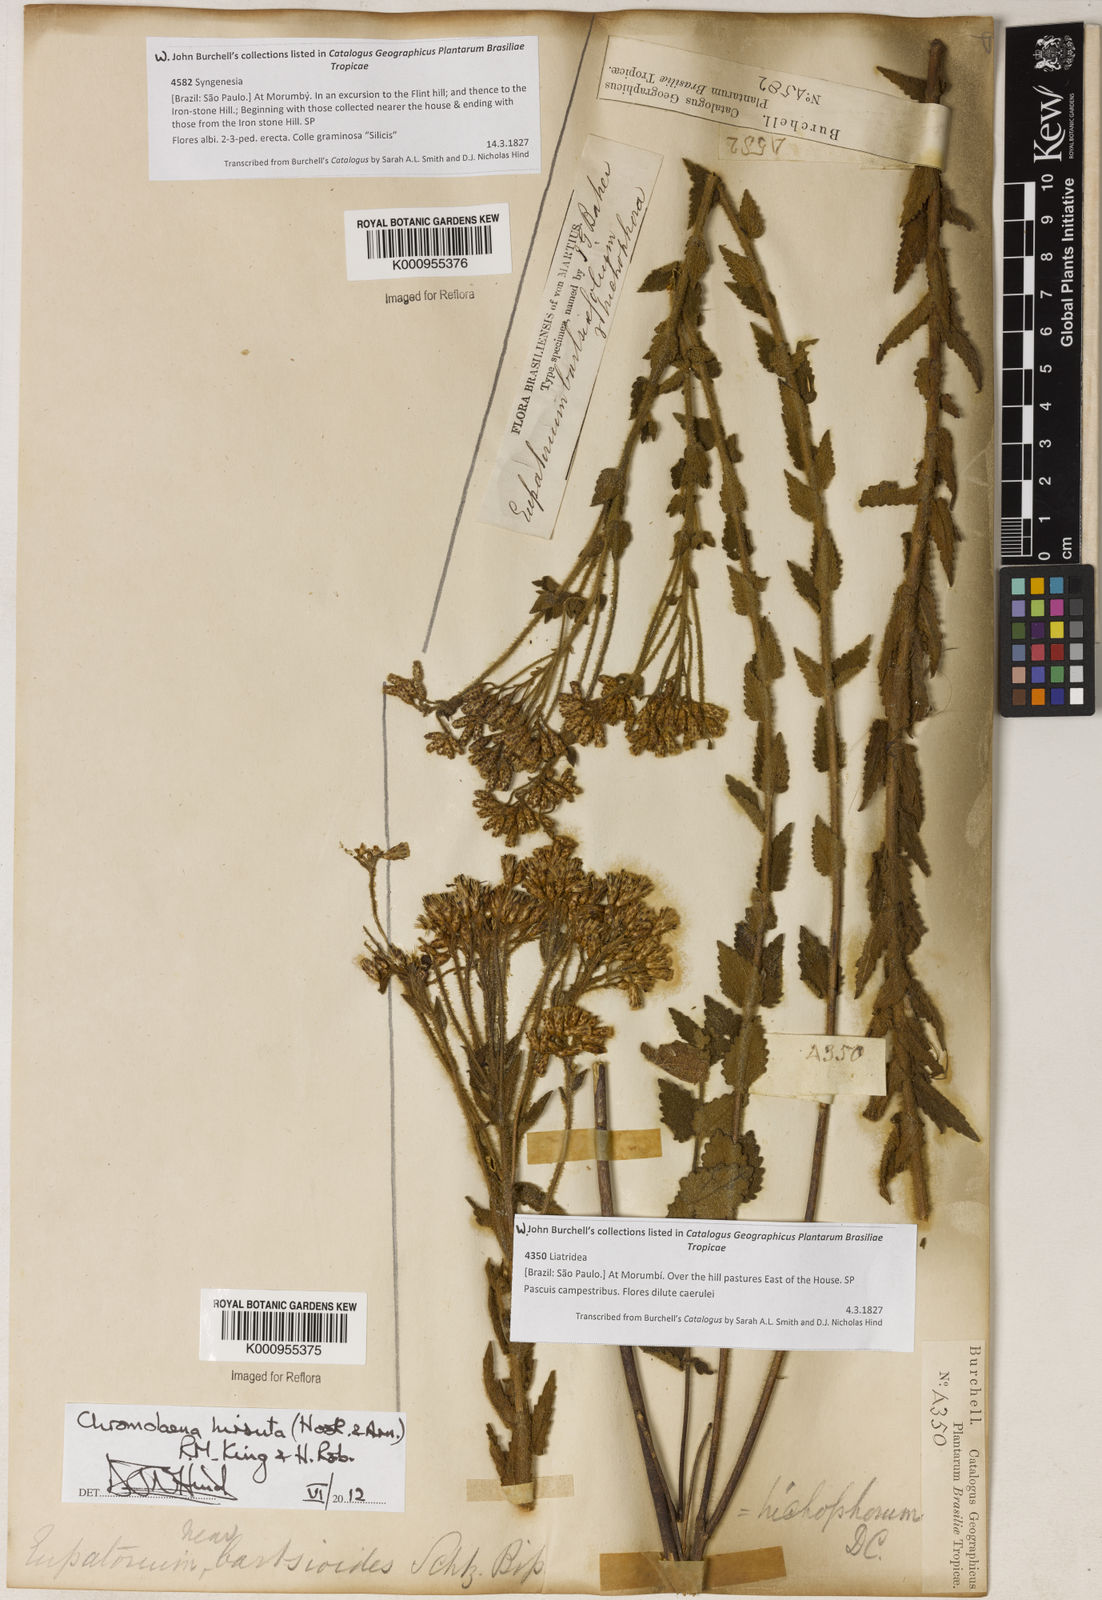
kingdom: Plantae
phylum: Tracheophyta
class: Magnoliopsida
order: Asterales
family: Asteraceae
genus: Chromolaena
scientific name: Chromolaena hirsuta
